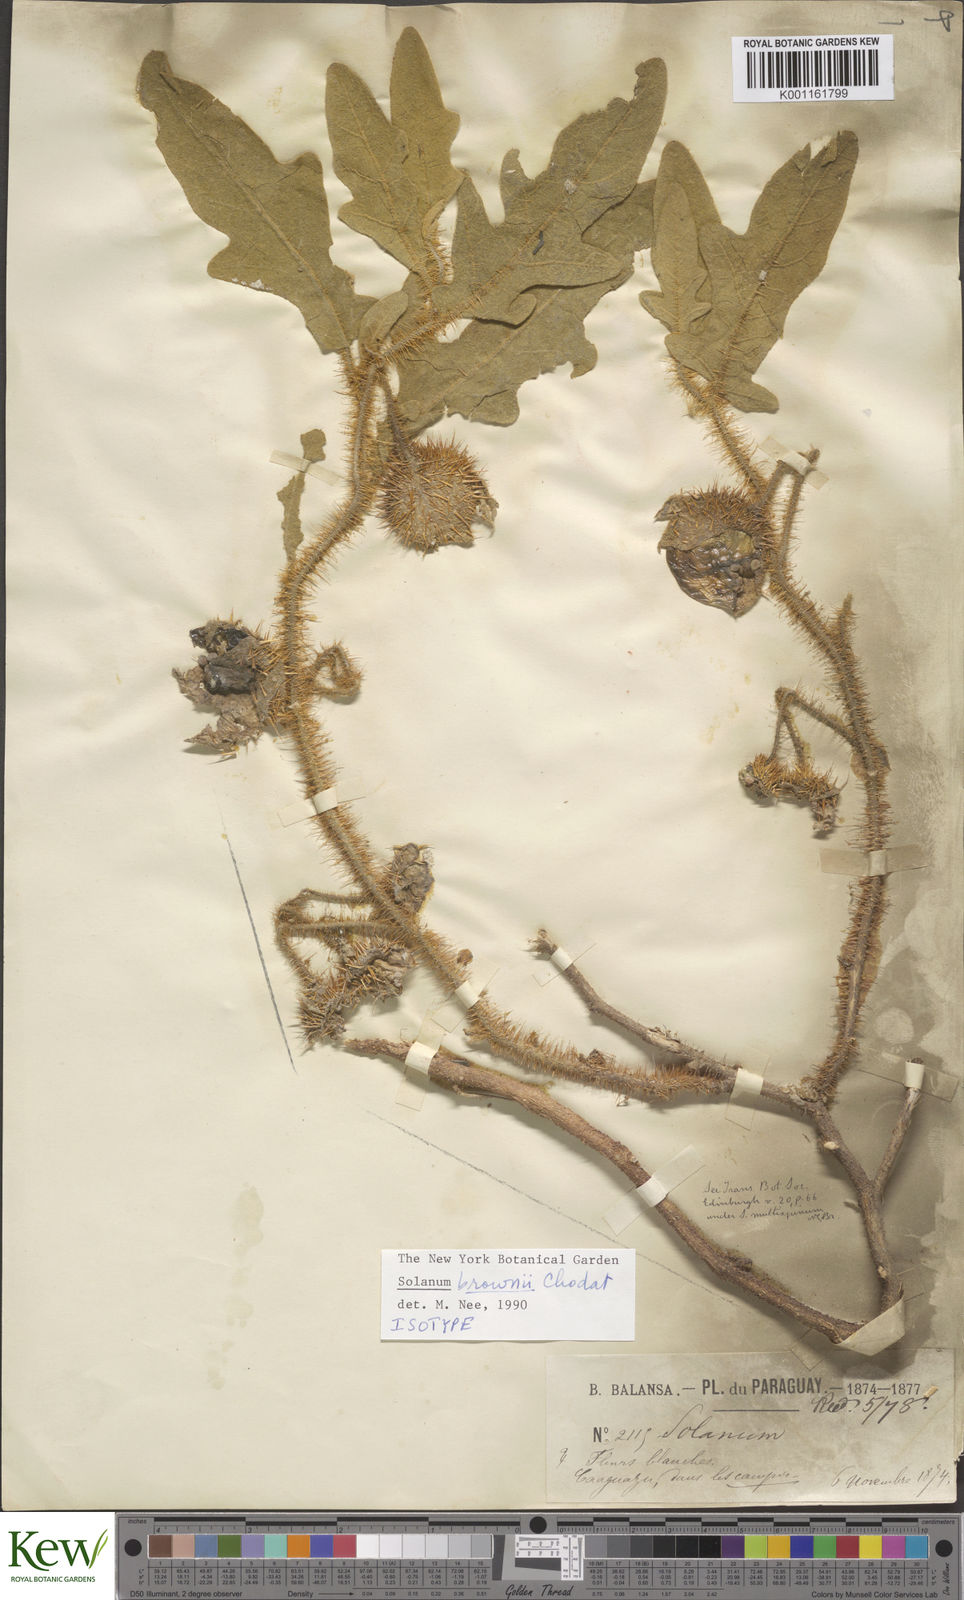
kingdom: Plantae
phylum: Tracheophyta
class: Magnoliopsida
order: Solanales
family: Solanaceae
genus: Solanum
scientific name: Solanum multispinum
